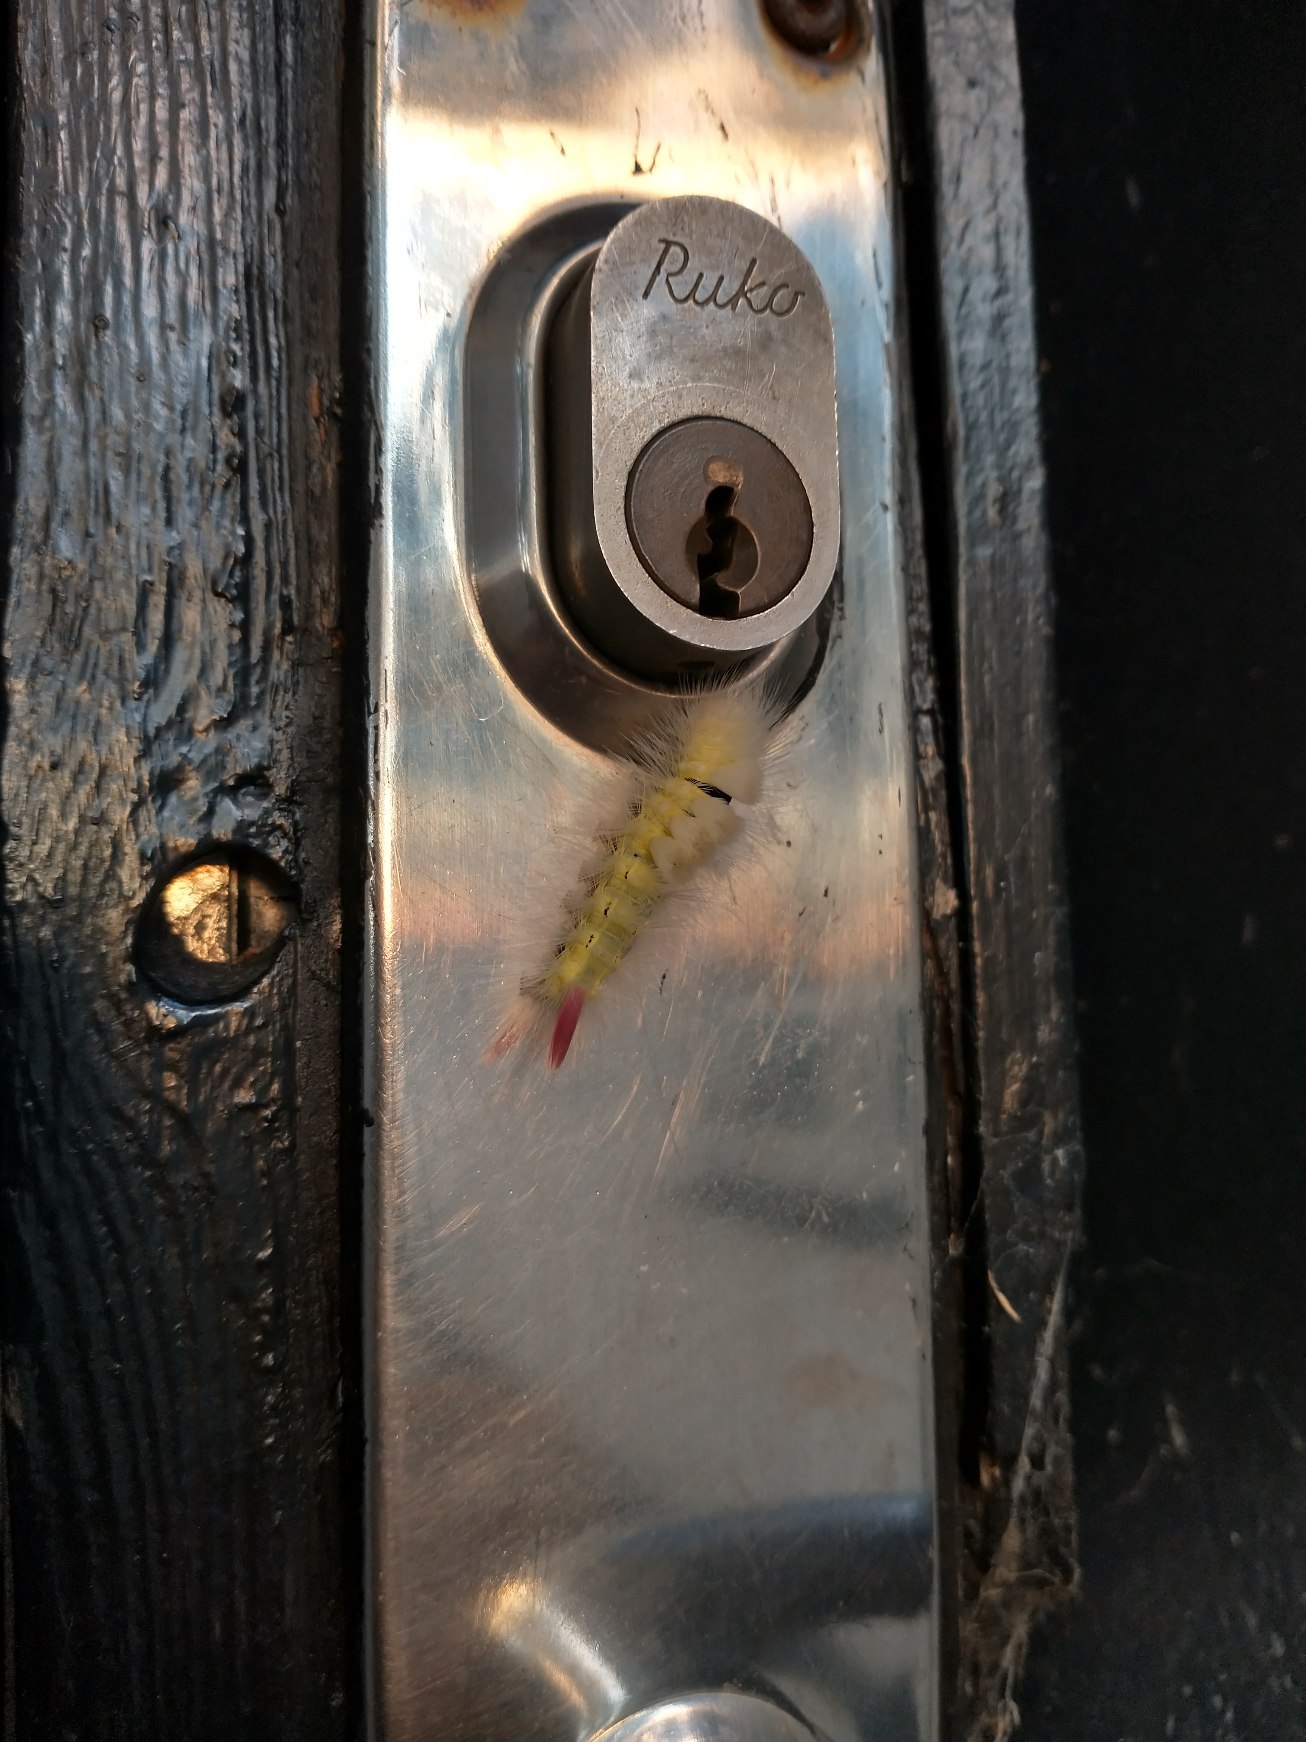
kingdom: Animalia
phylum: Arthropoda
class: Insecta
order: Lepidoptera
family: Erebidae
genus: Calliteara
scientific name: Calliteara pudibunda
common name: Bøgenonne
